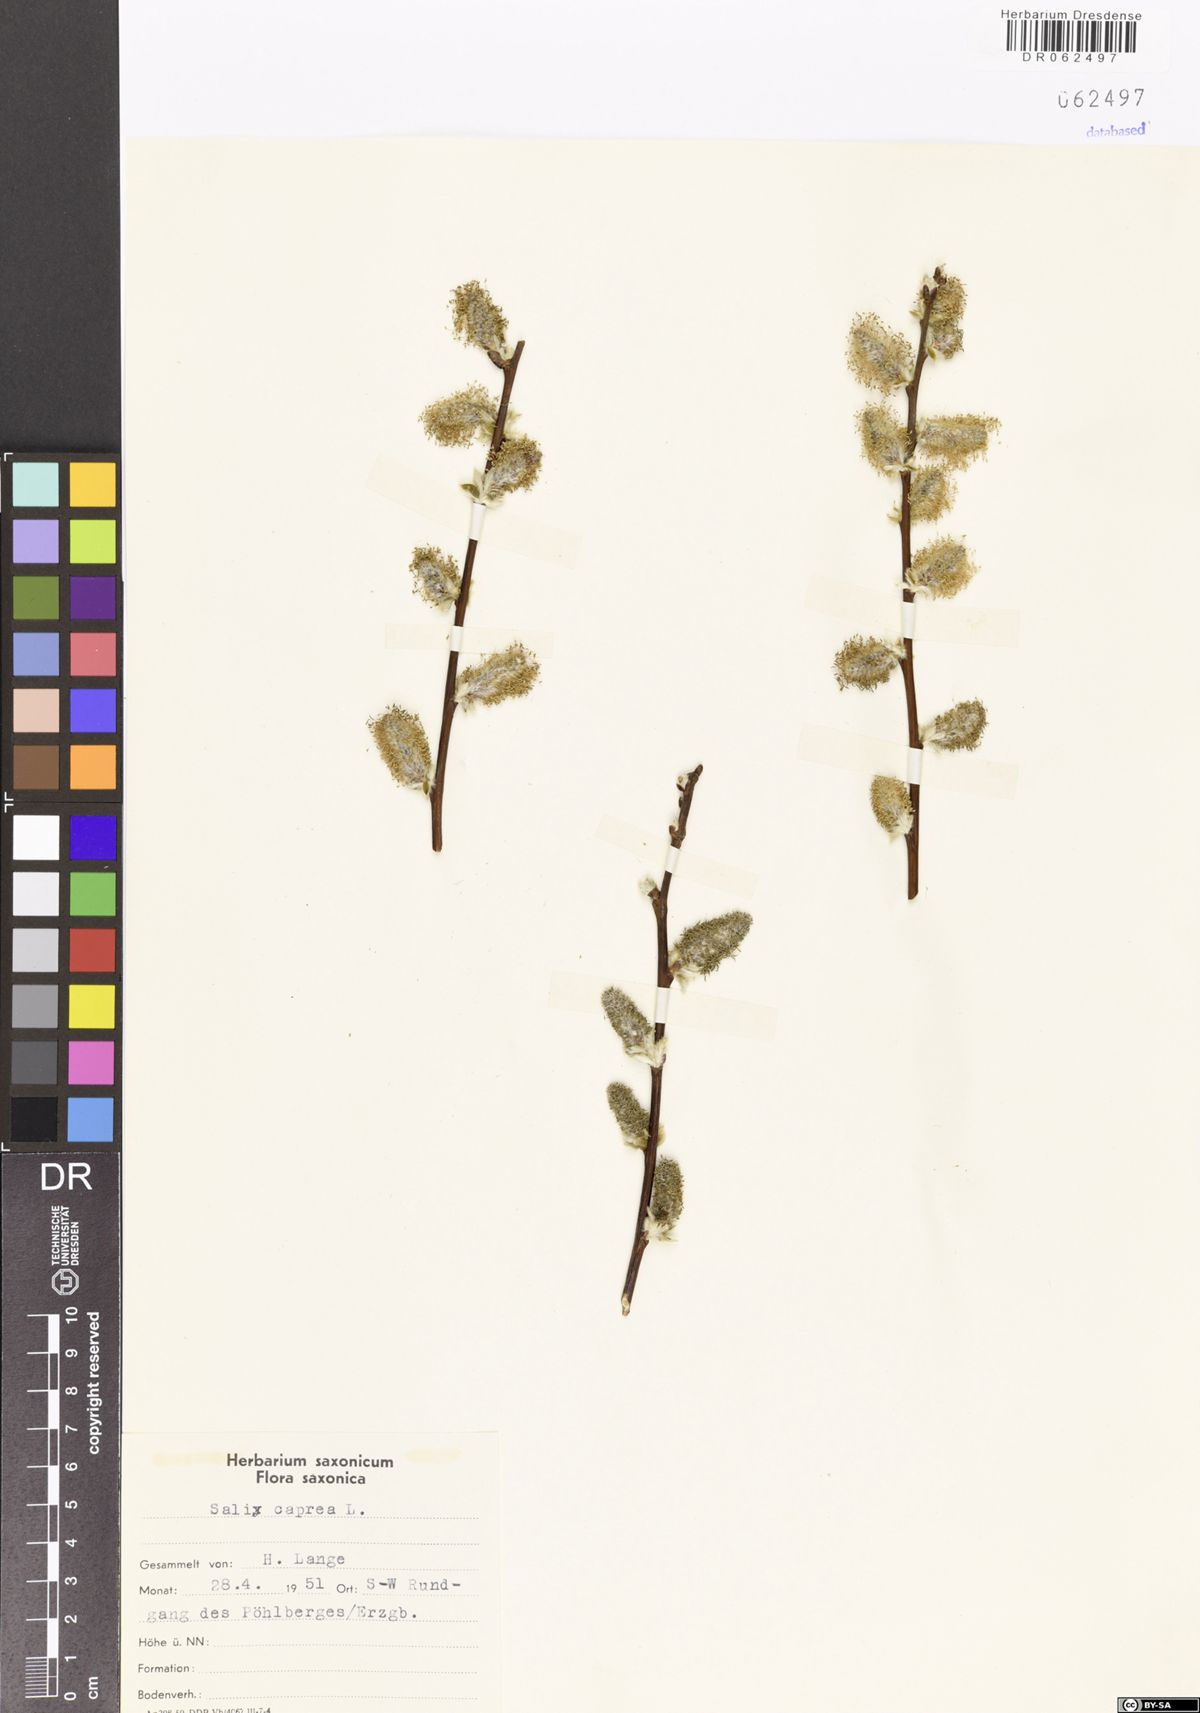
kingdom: Plantae
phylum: Tracheophyta
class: Magnoliopsida
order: Malpighiales
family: Salicaceae
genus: Salix
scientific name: Salix caprea
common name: Goat willow
